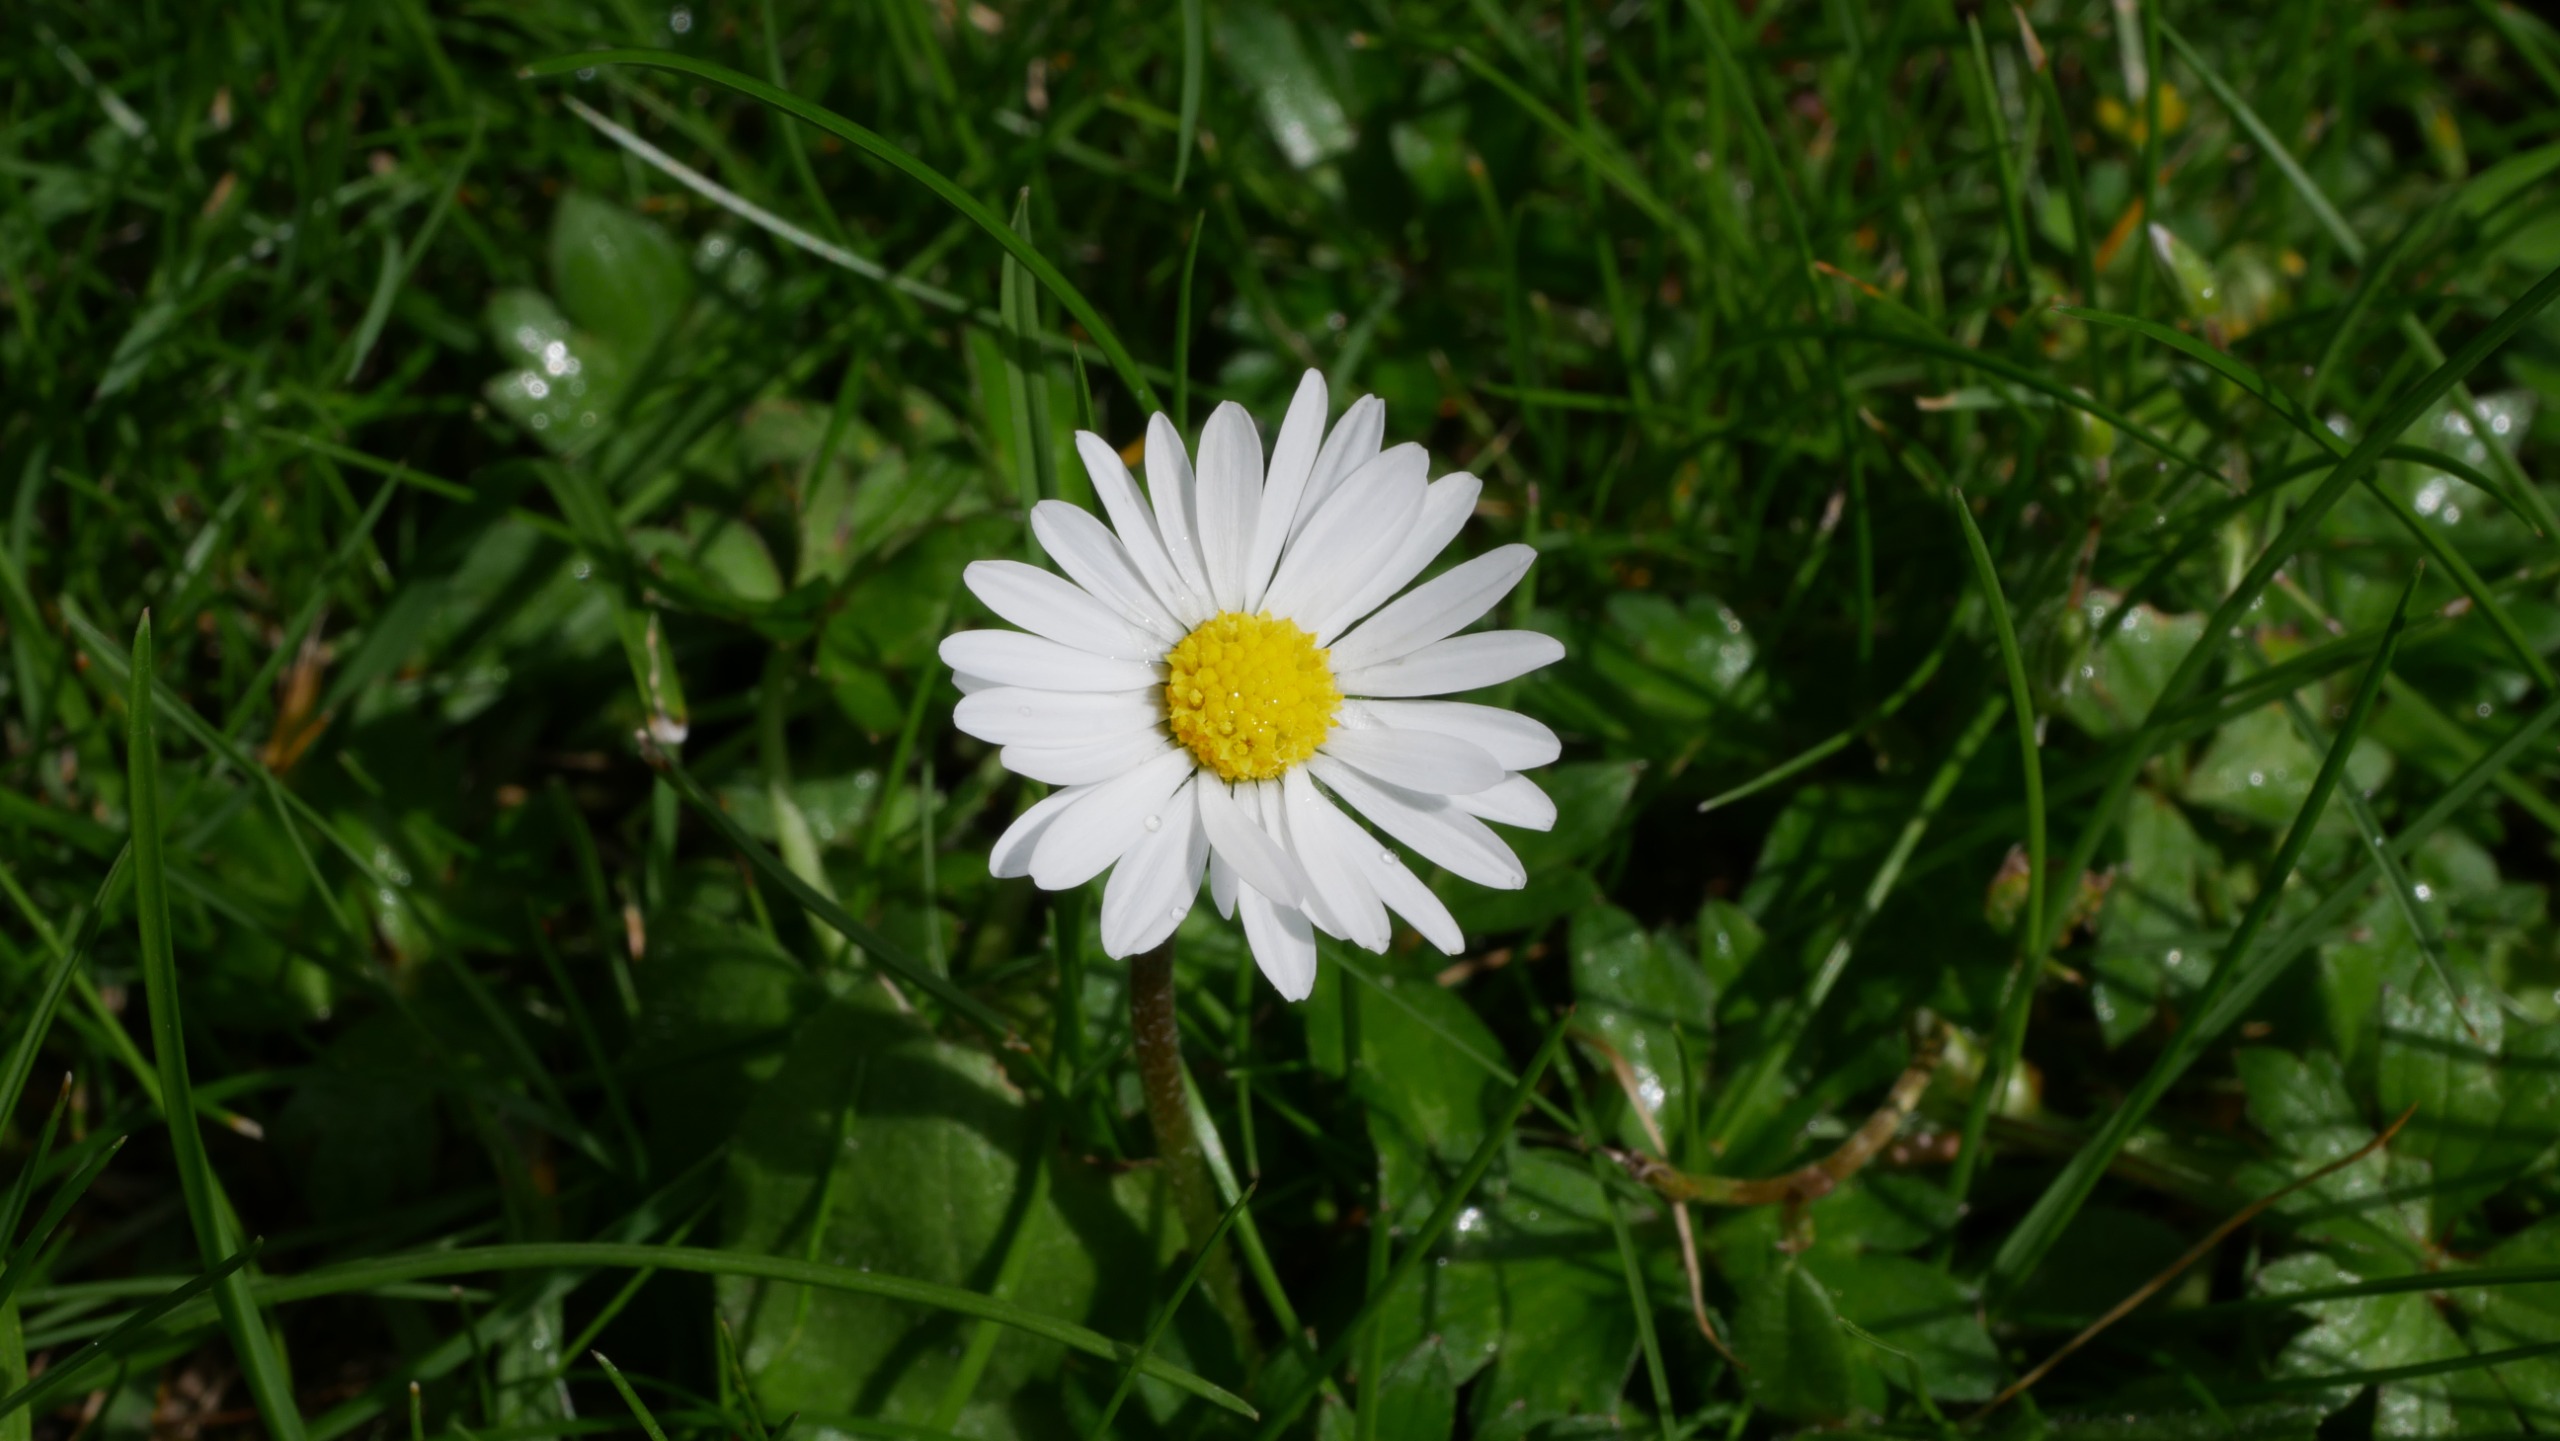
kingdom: Plantae
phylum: Tracheophyta
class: Magnoliopsida
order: Asterales
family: Asteraceae
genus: Bellis
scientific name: Bellis perennis
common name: Tusindfryd
